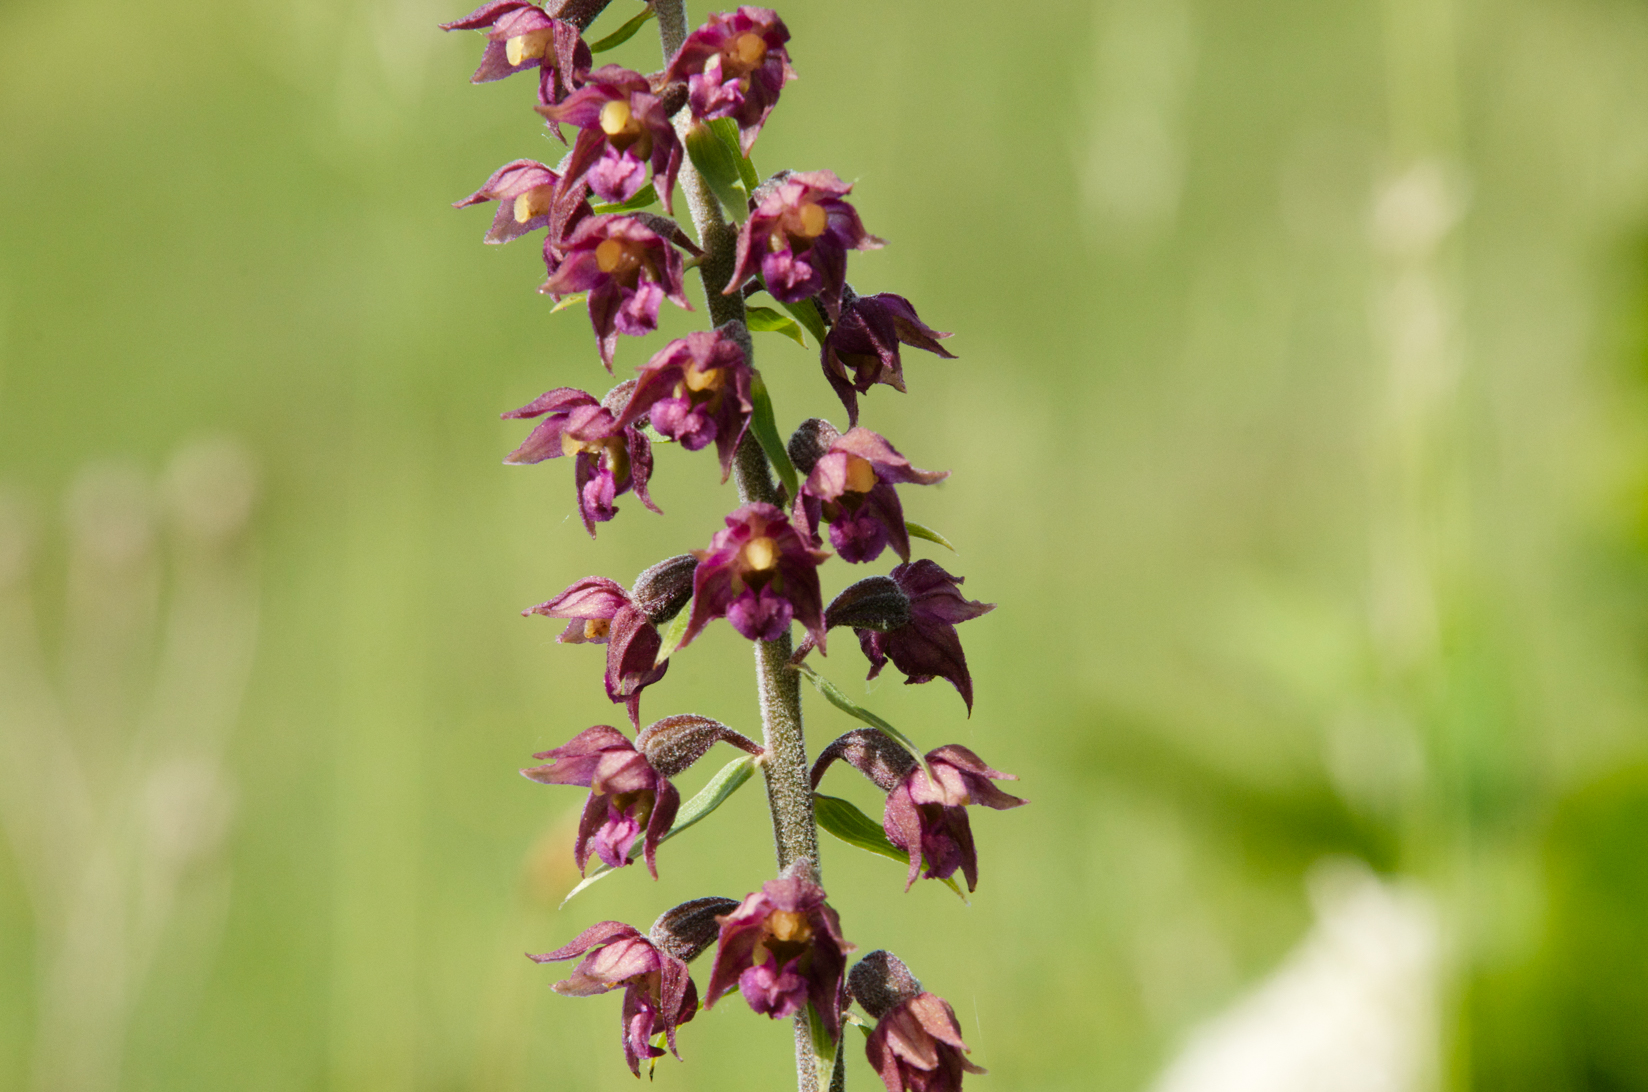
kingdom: Plantae
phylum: Tracheophyta
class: Liliopsida
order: Asparagales
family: Orchidaceae
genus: Epipactis
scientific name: Epipactis atrorubens
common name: Dark-red helleborine
